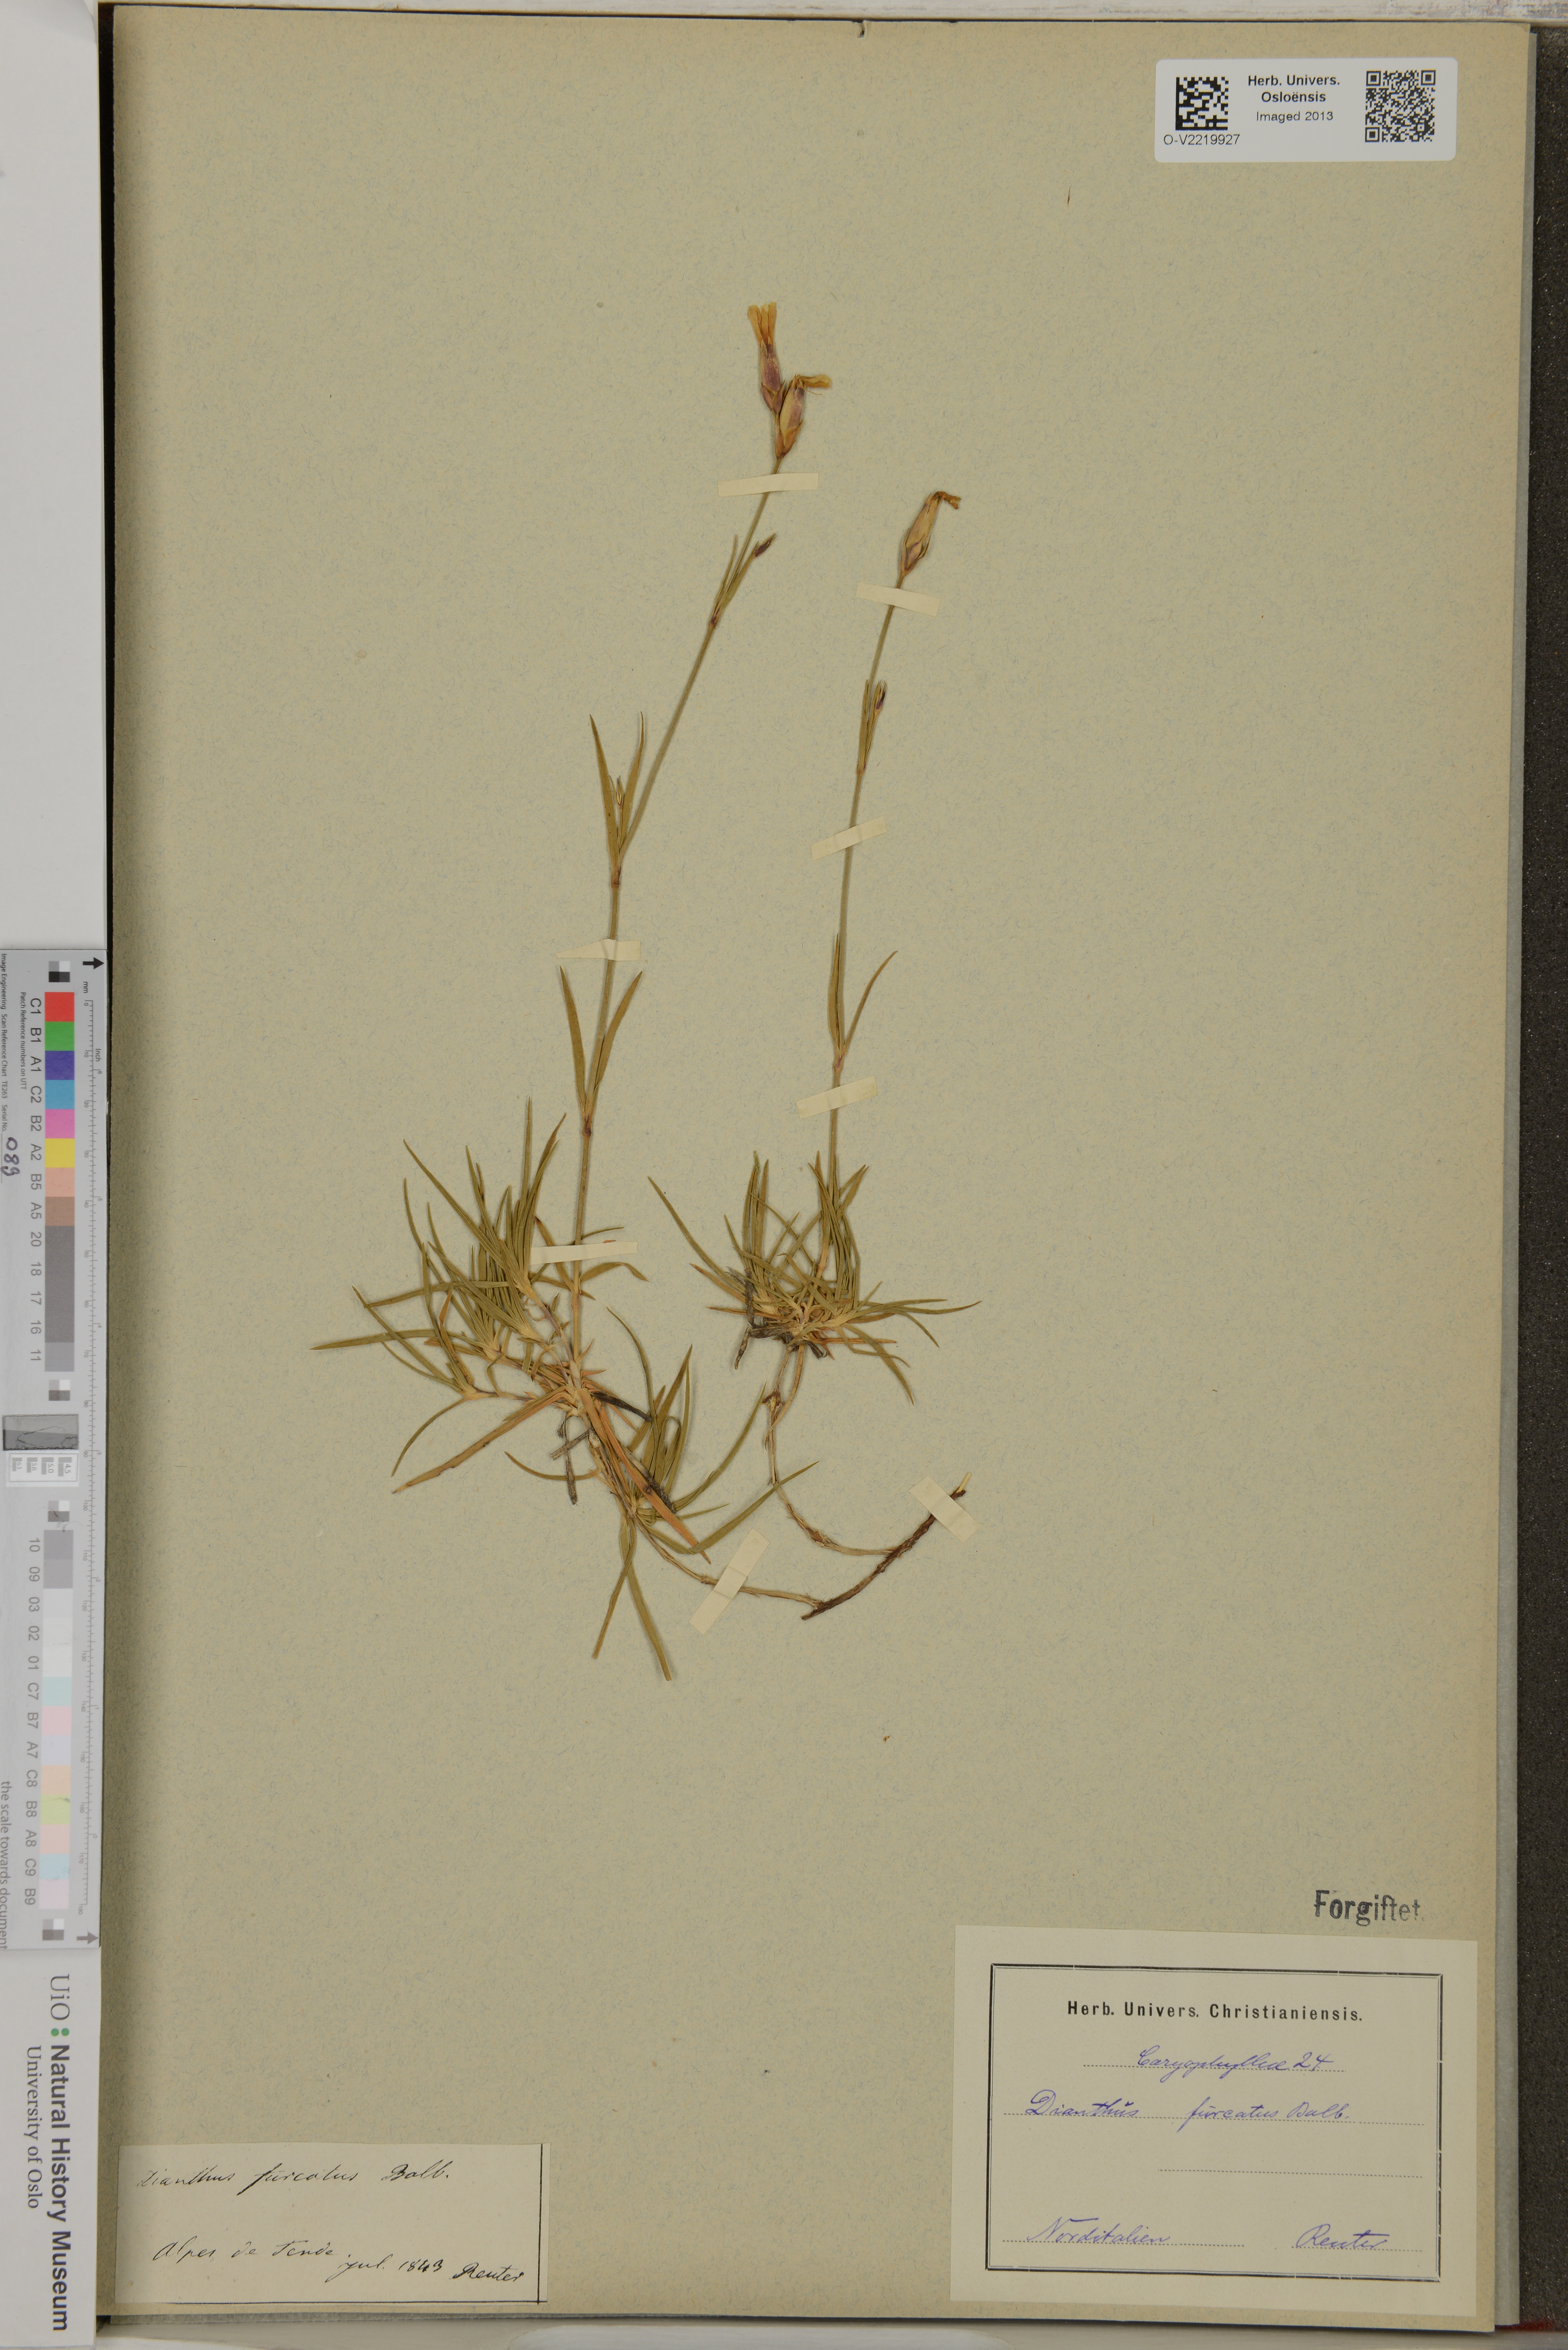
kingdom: Plantae
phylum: Tracheophyta
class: Magnoliopsida
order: Caryophyllales
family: Caryophyllaceae
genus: Dianthus
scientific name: Dianthus furcatus
